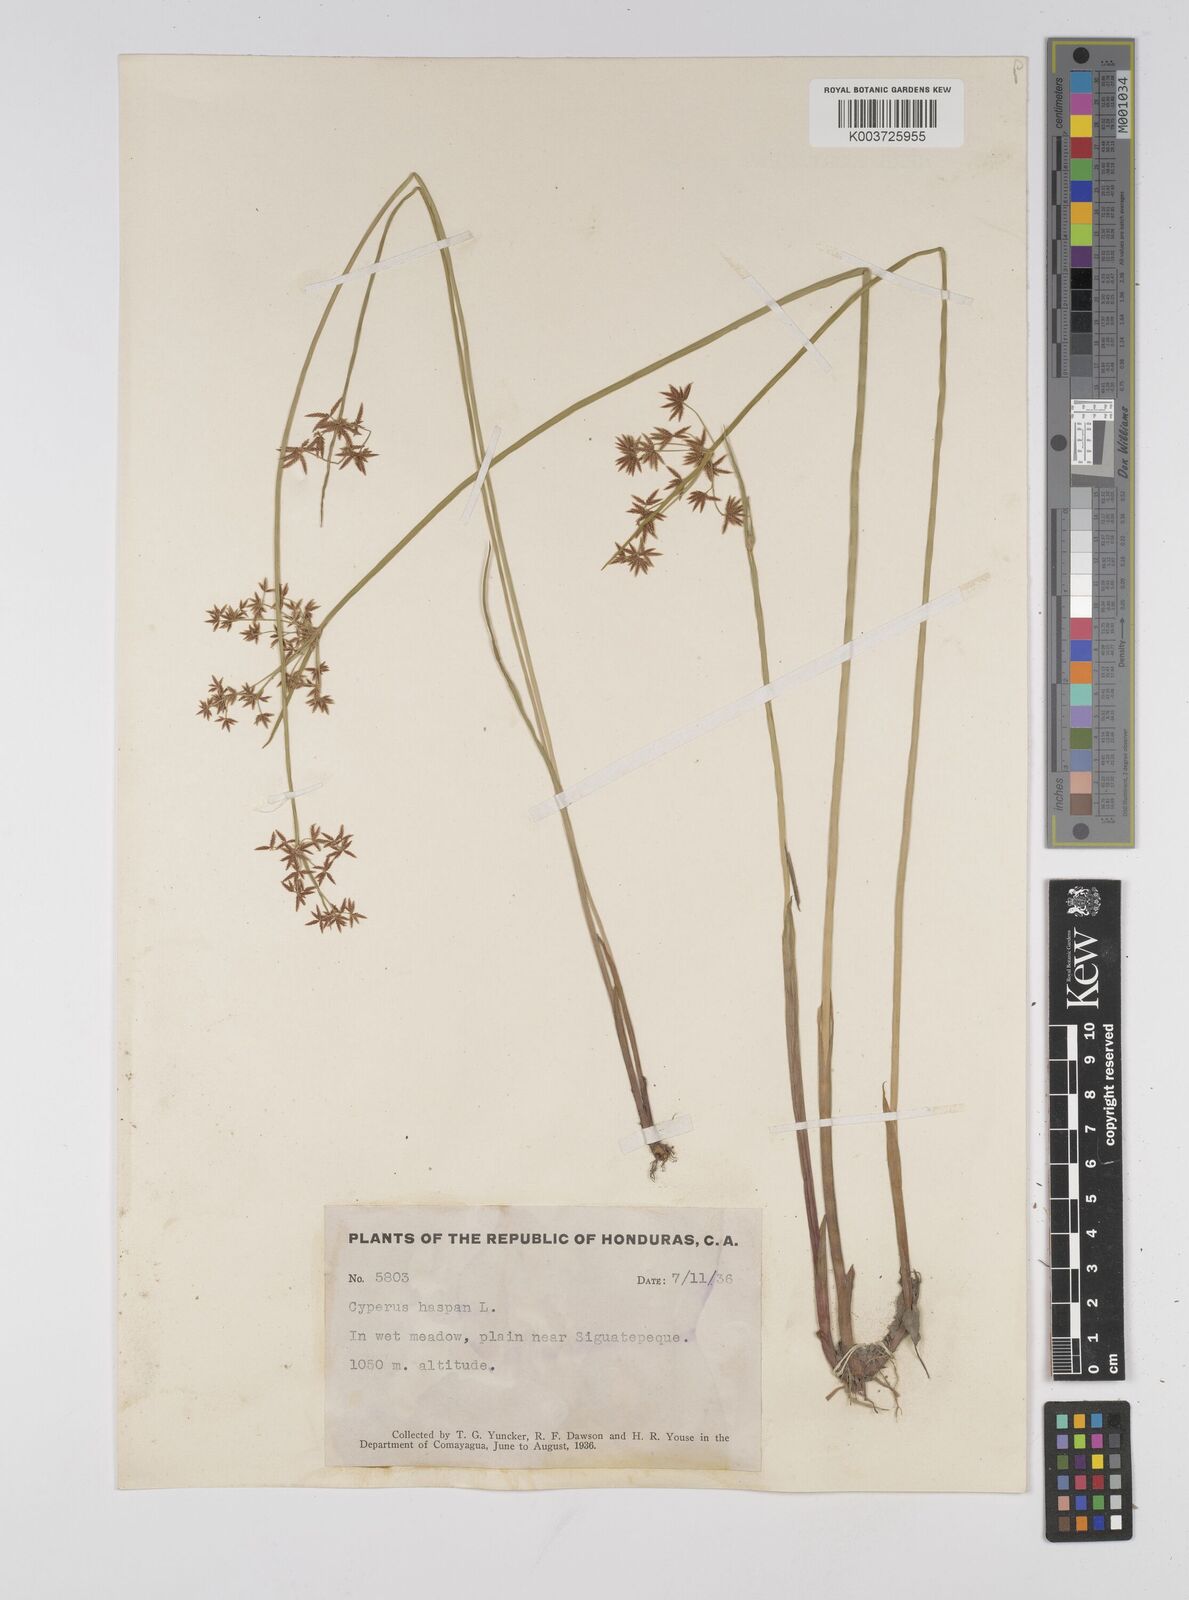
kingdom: Plantae
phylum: Tracheophyta
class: Liliopsida
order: Poales
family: Cyperaceae
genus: Cyperus
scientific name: Cyperus haspan
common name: Haspan flatsedge
